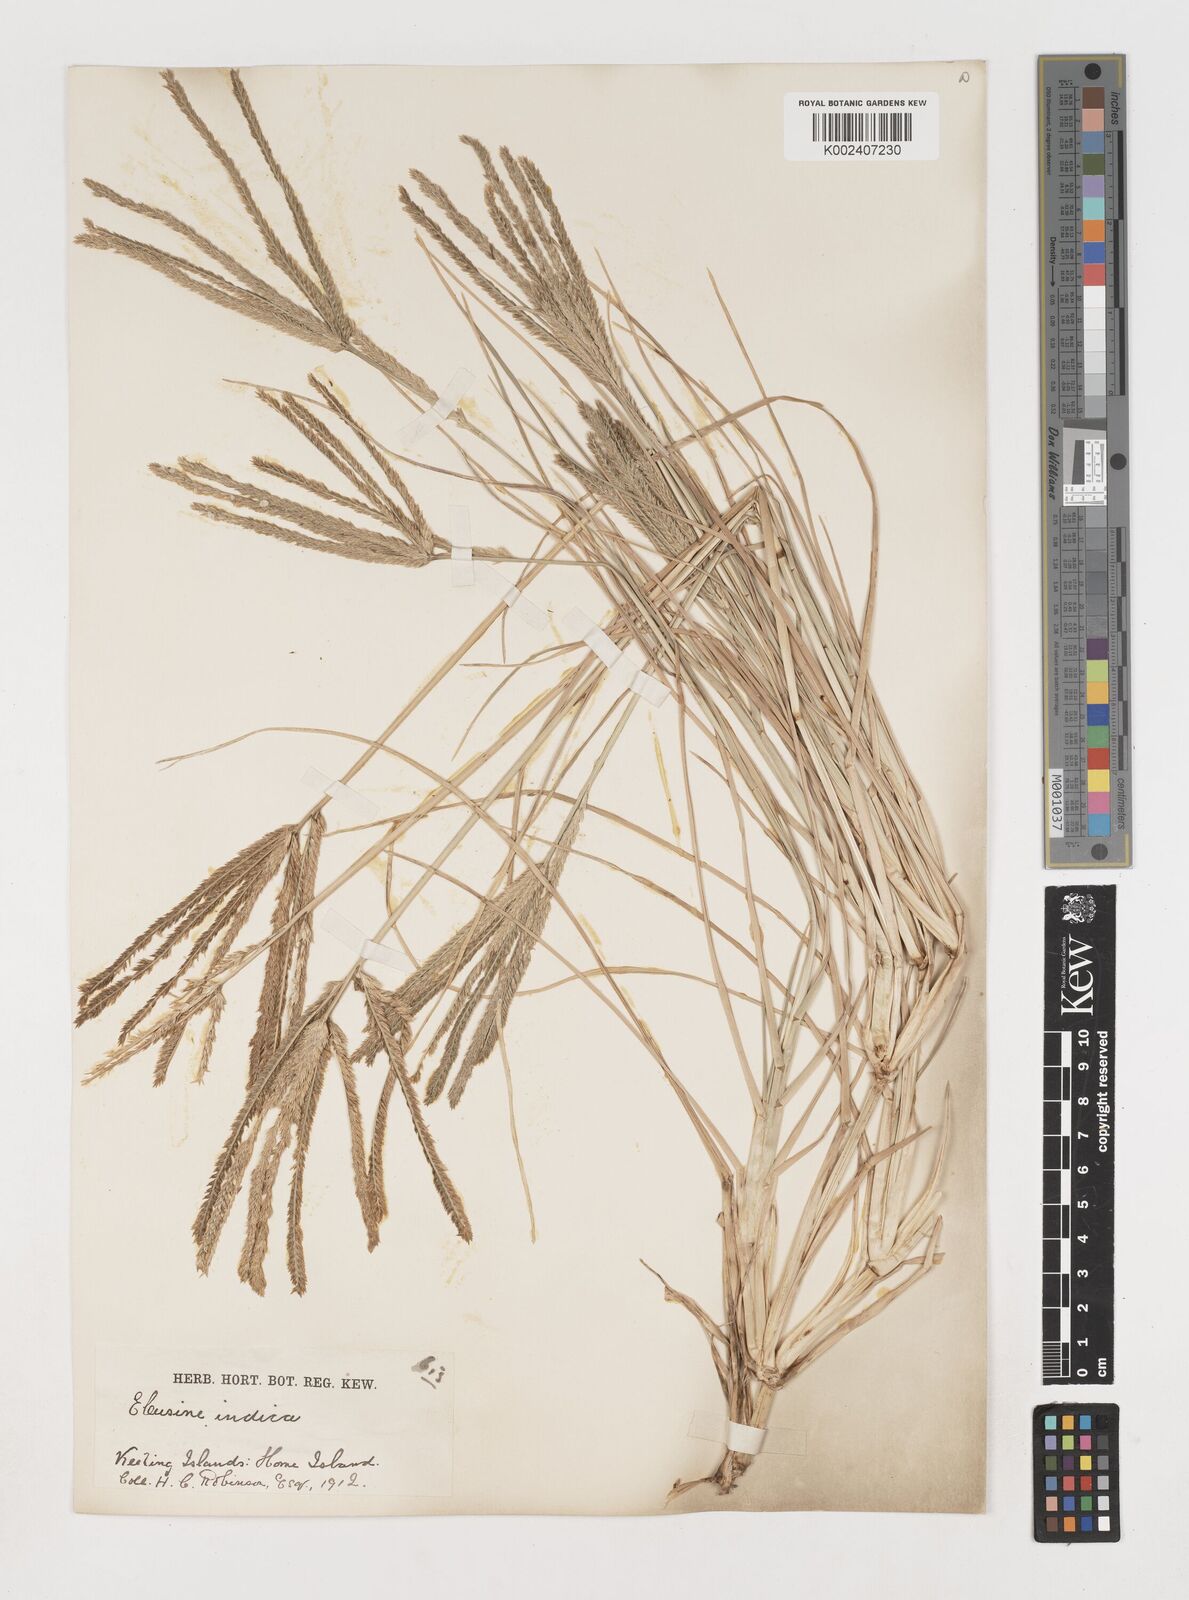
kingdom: Plantae
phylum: Tracheophyta
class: Liliopsida
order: Poales
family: Poaceae
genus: Eleusine
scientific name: Eleusine indica
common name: Yard-grass
